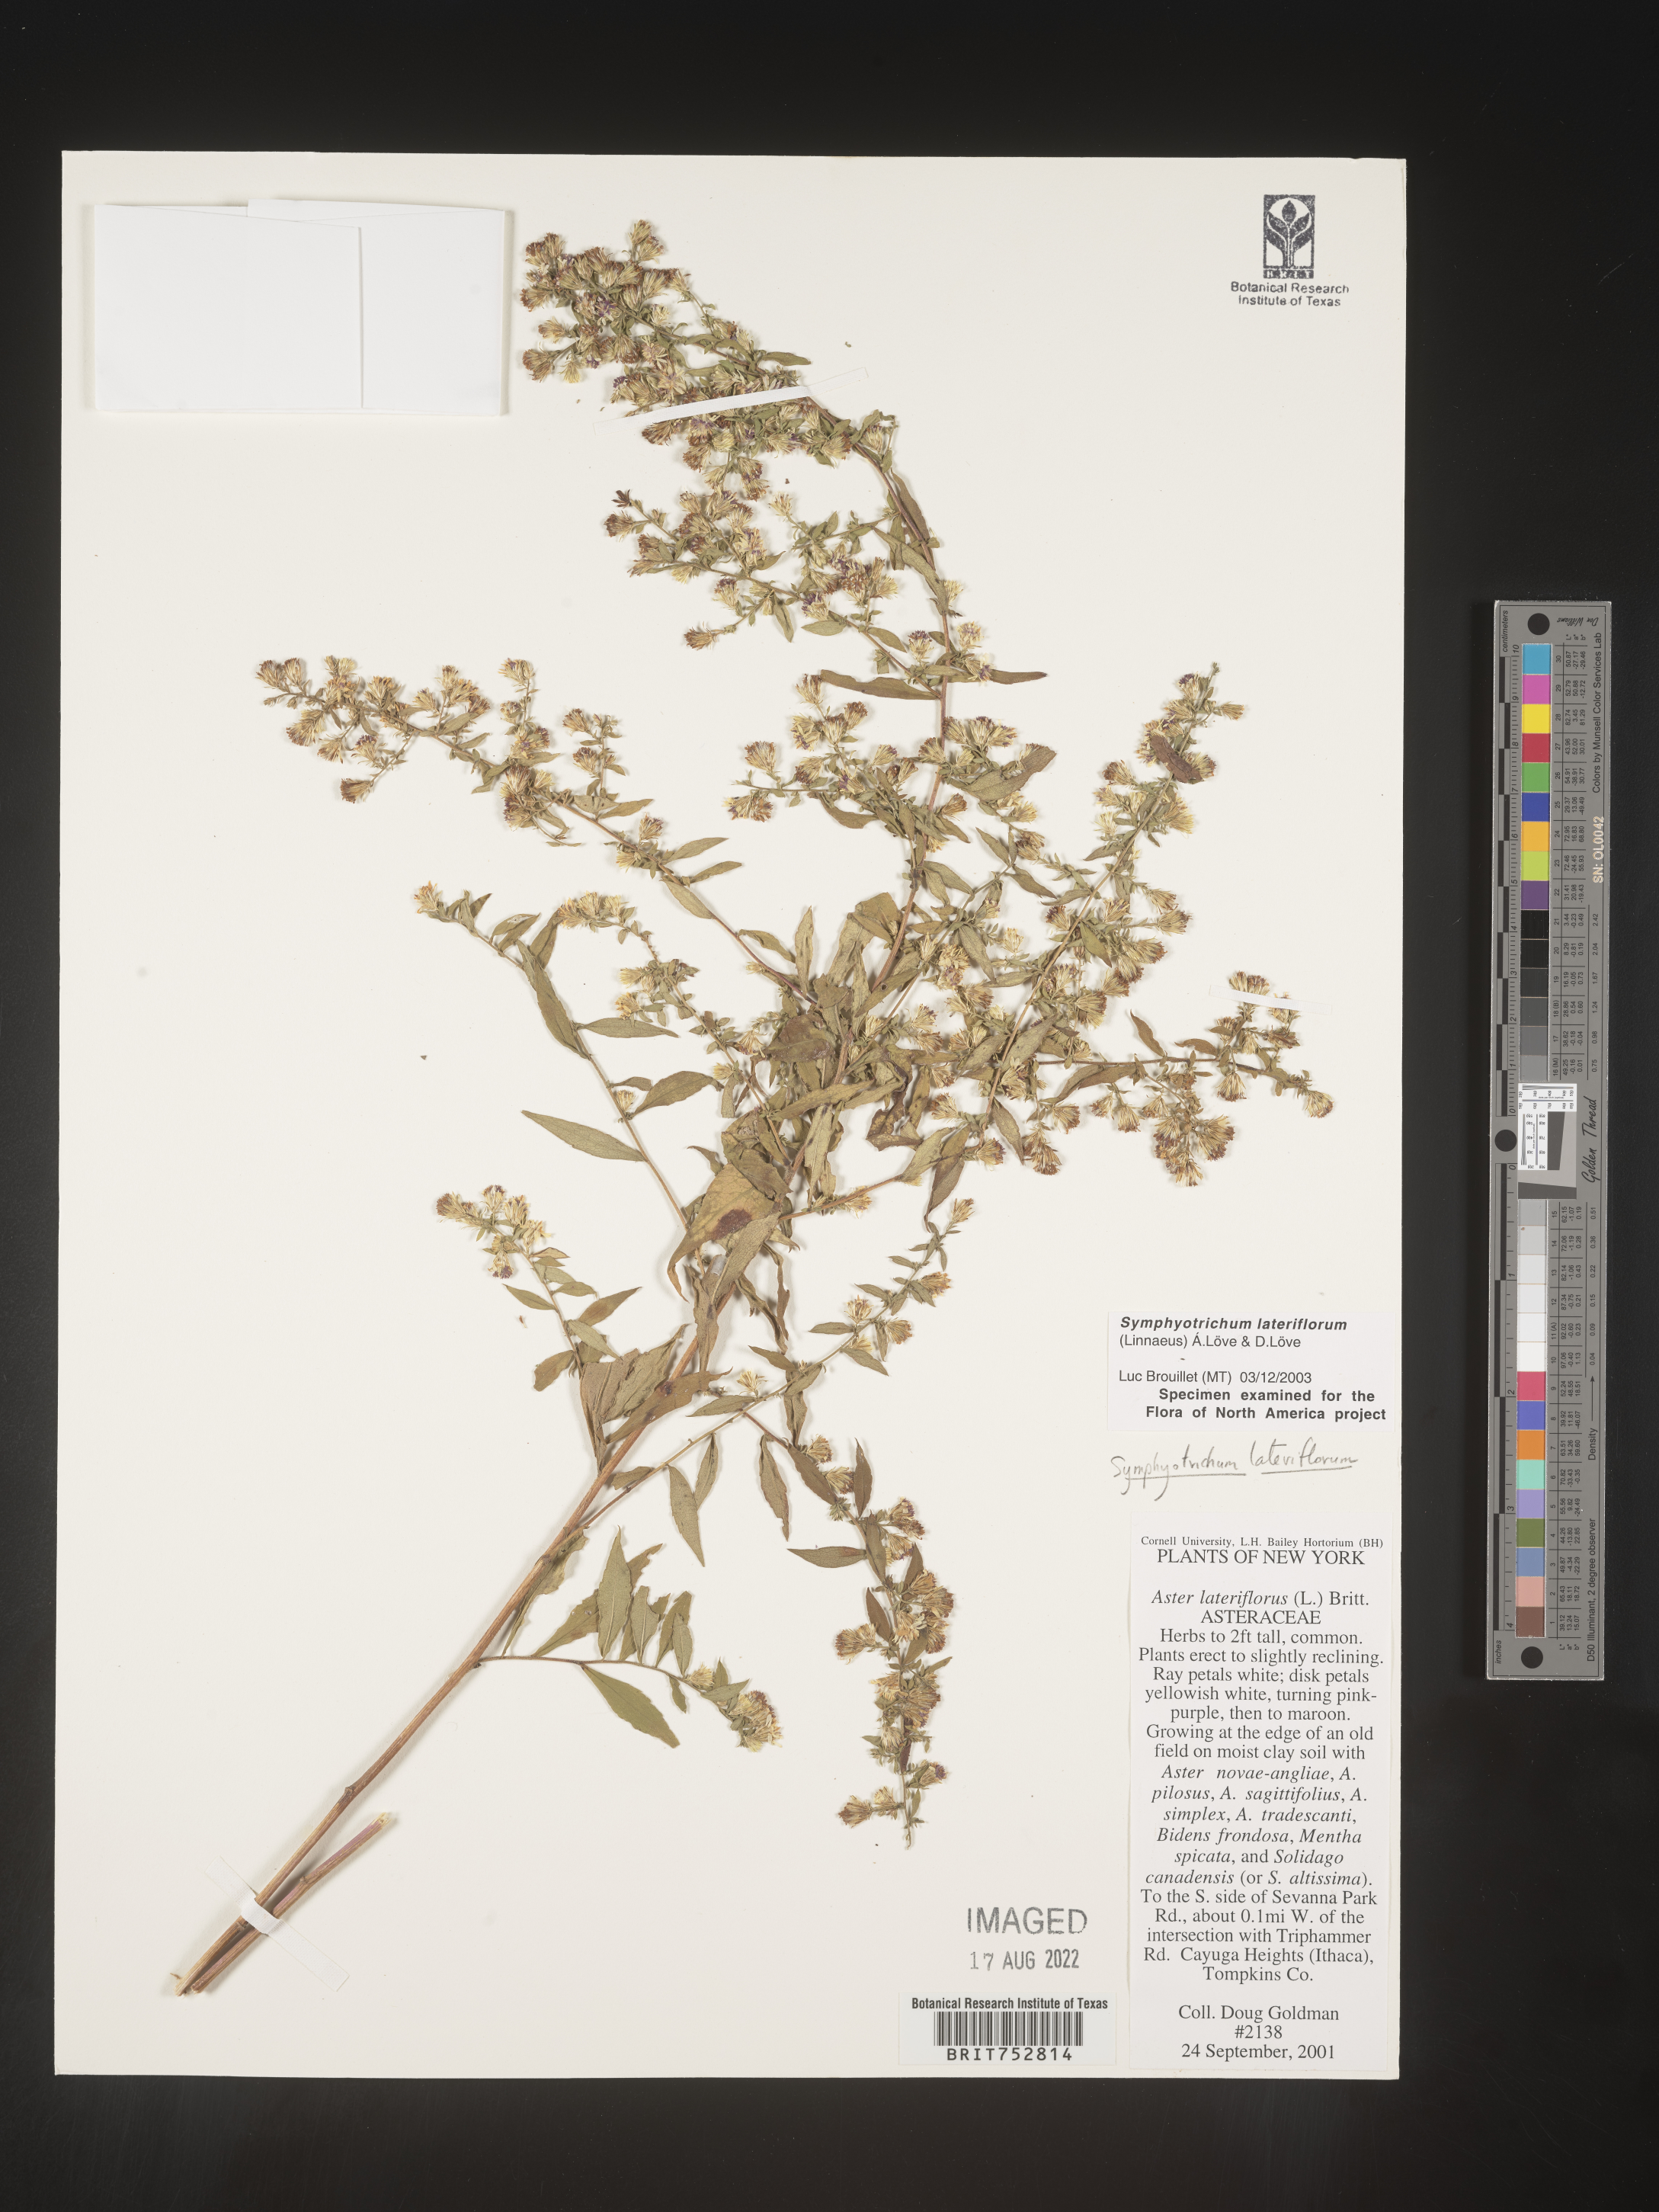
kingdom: Plantae
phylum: Tracheophyta
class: Magnoliopsida
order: Asterales
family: Asteraceae
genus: Symphyotrichum
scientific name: Symphyotrichum lateriflorum
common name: Calico aster
